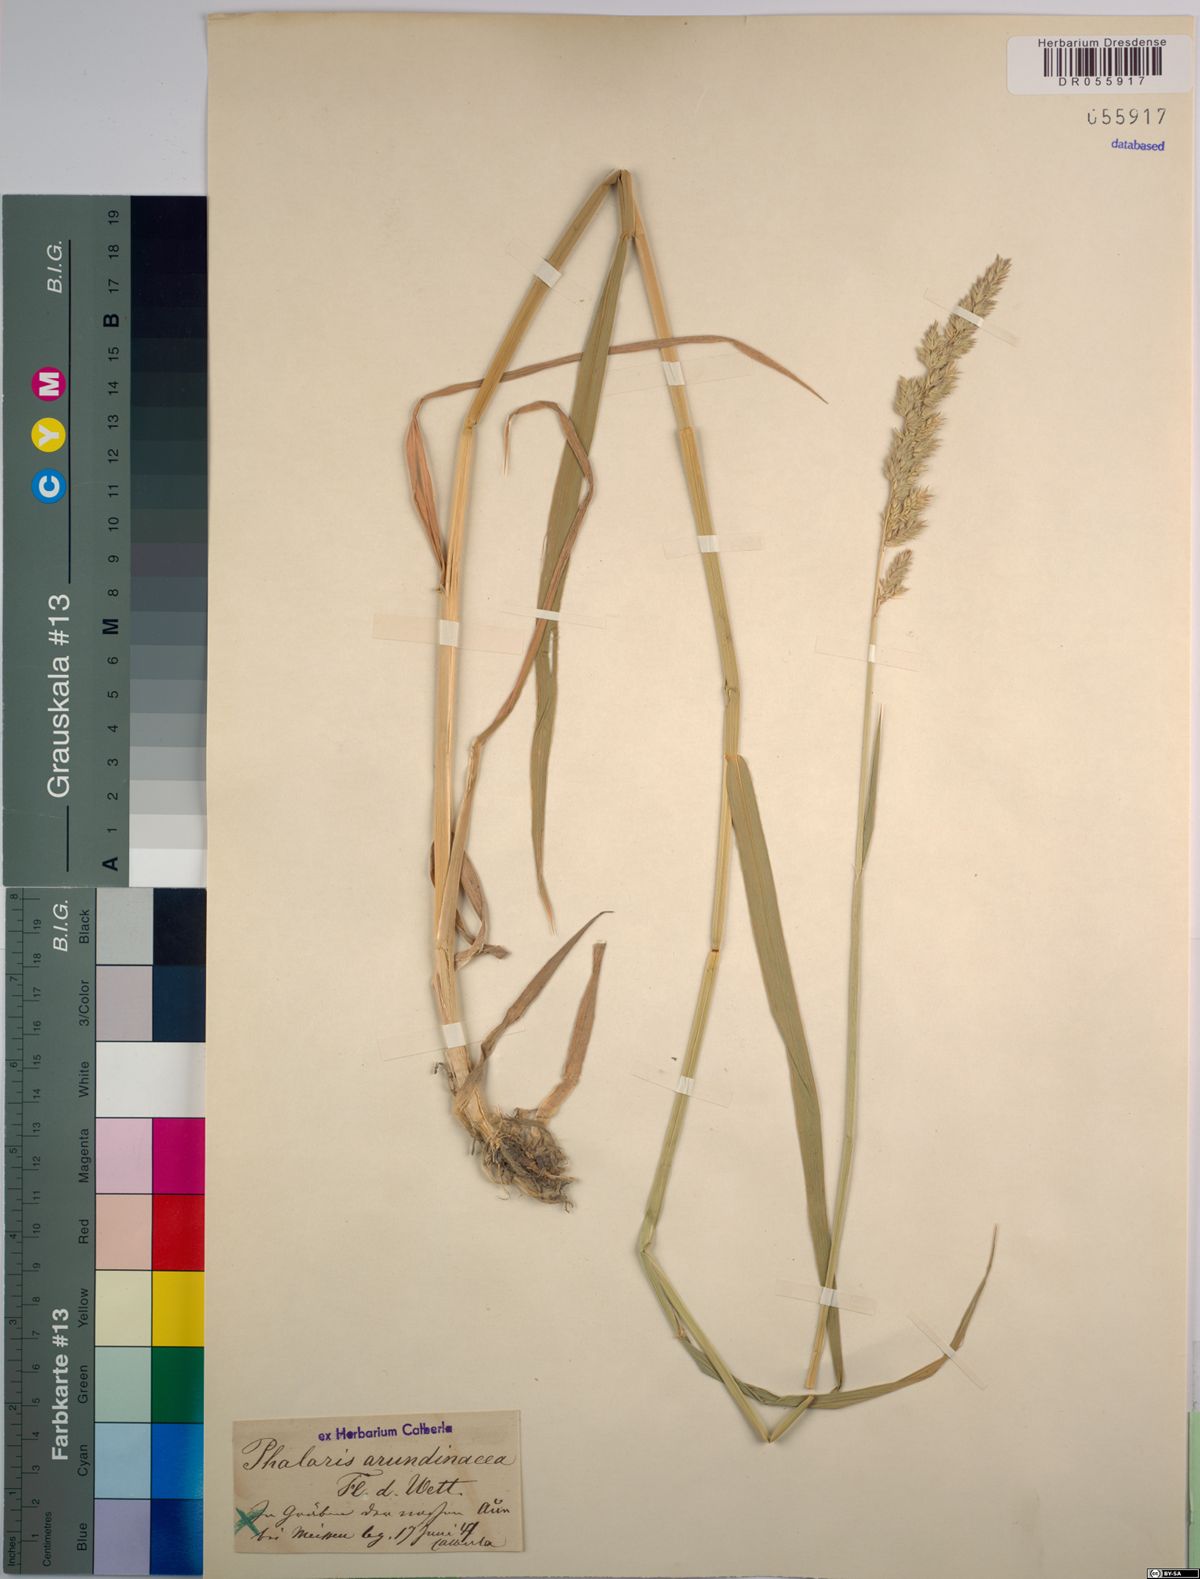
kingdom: Plantae
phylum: Tracheophyta
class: Liliopsida
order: Poales
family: Poaceae
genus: Phalaris
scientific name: Phalaris arundinacea
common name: Reed canary-grass
